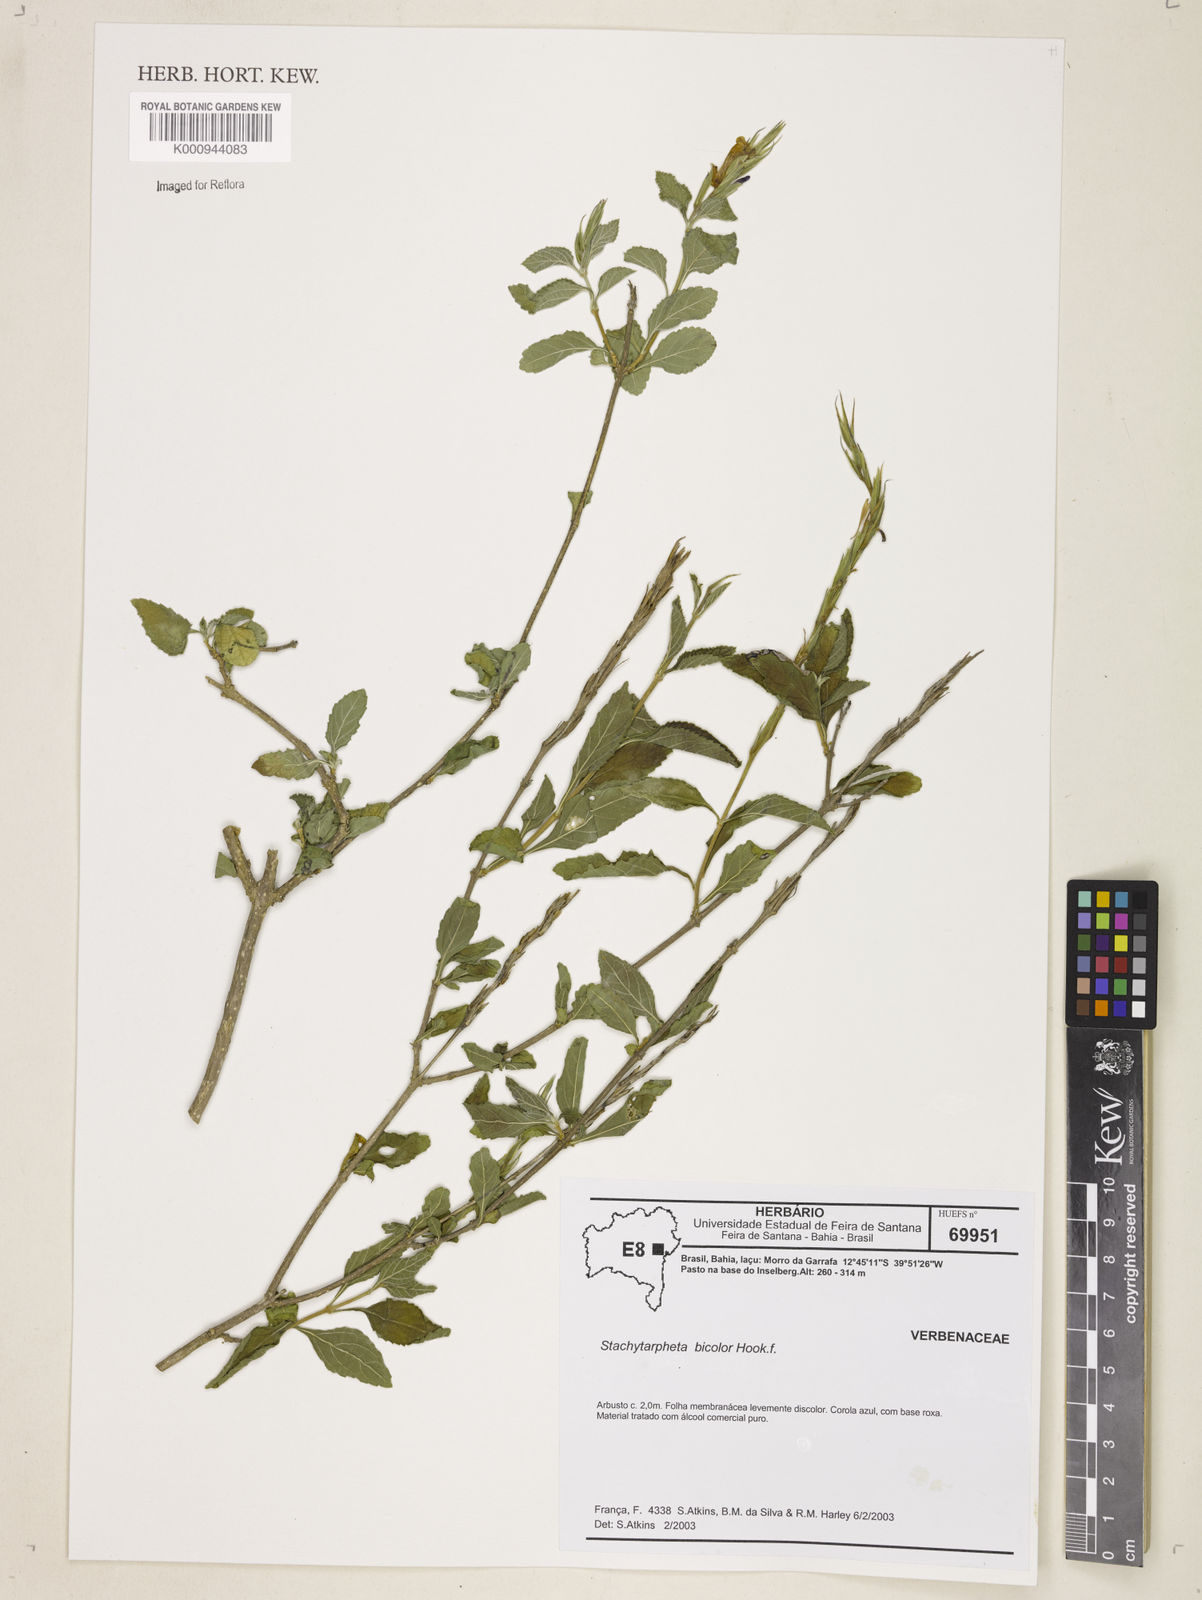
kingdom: Plantae
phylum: Tracheophyta
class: Magnoliopsida
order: Lamiales
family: Verbenaceae
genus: Stachytarpheta
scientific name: Stachytarpheta bicolor
